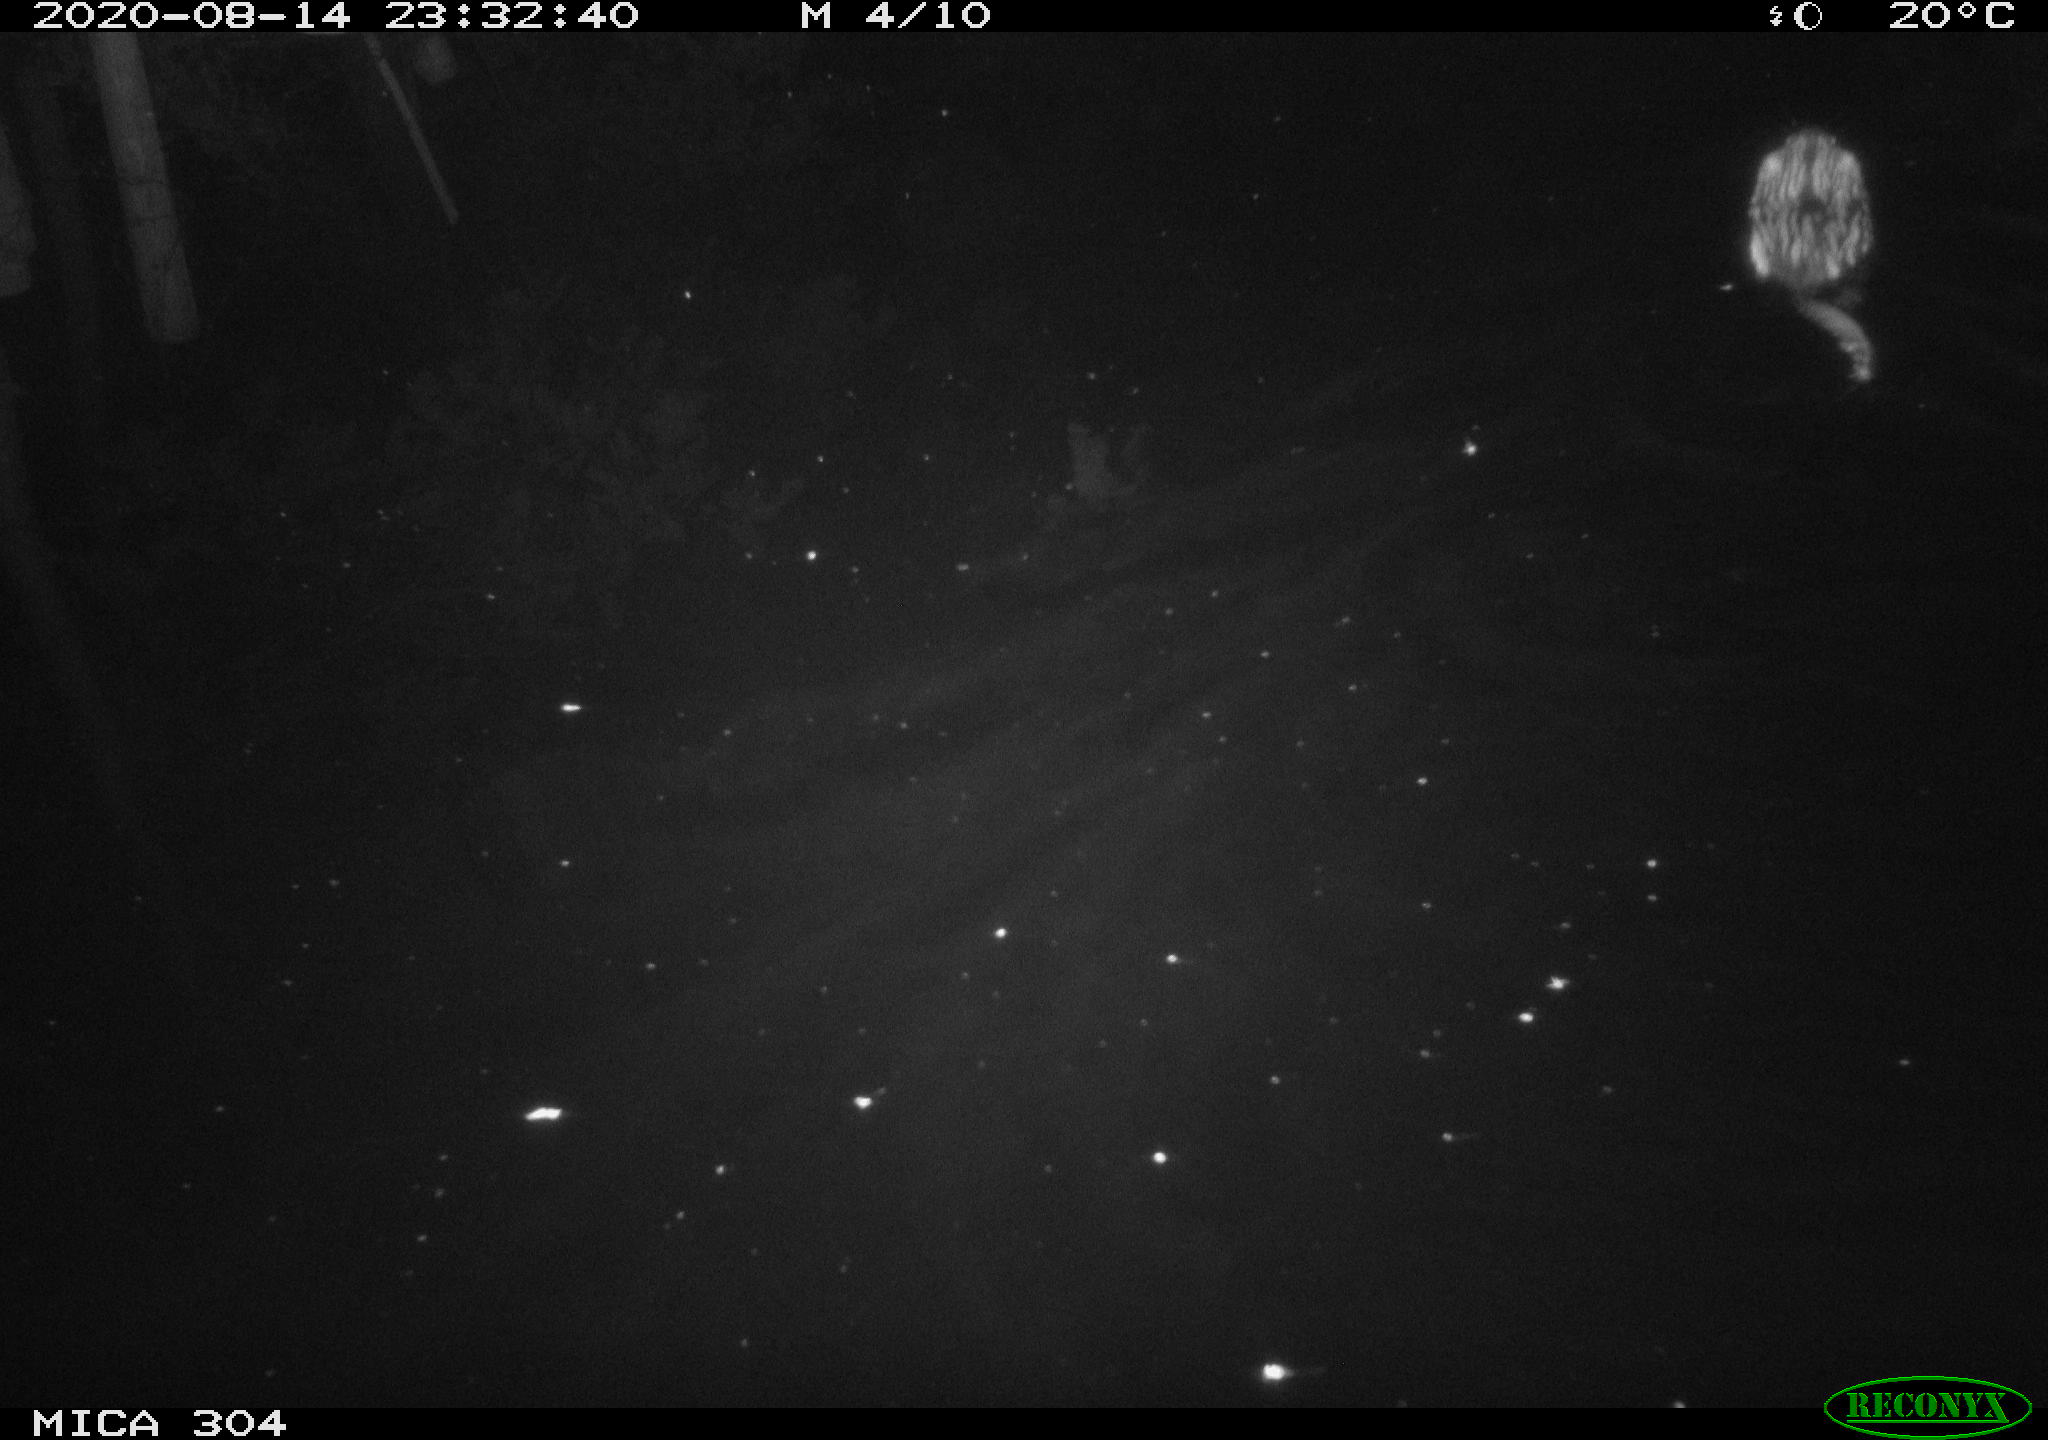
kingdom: Animalia
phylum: Chordata
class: Mammalia
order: Rodentia
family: Cricetidae
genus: Ondatra
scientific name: Ondatra zibethicus
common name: Muskrat
